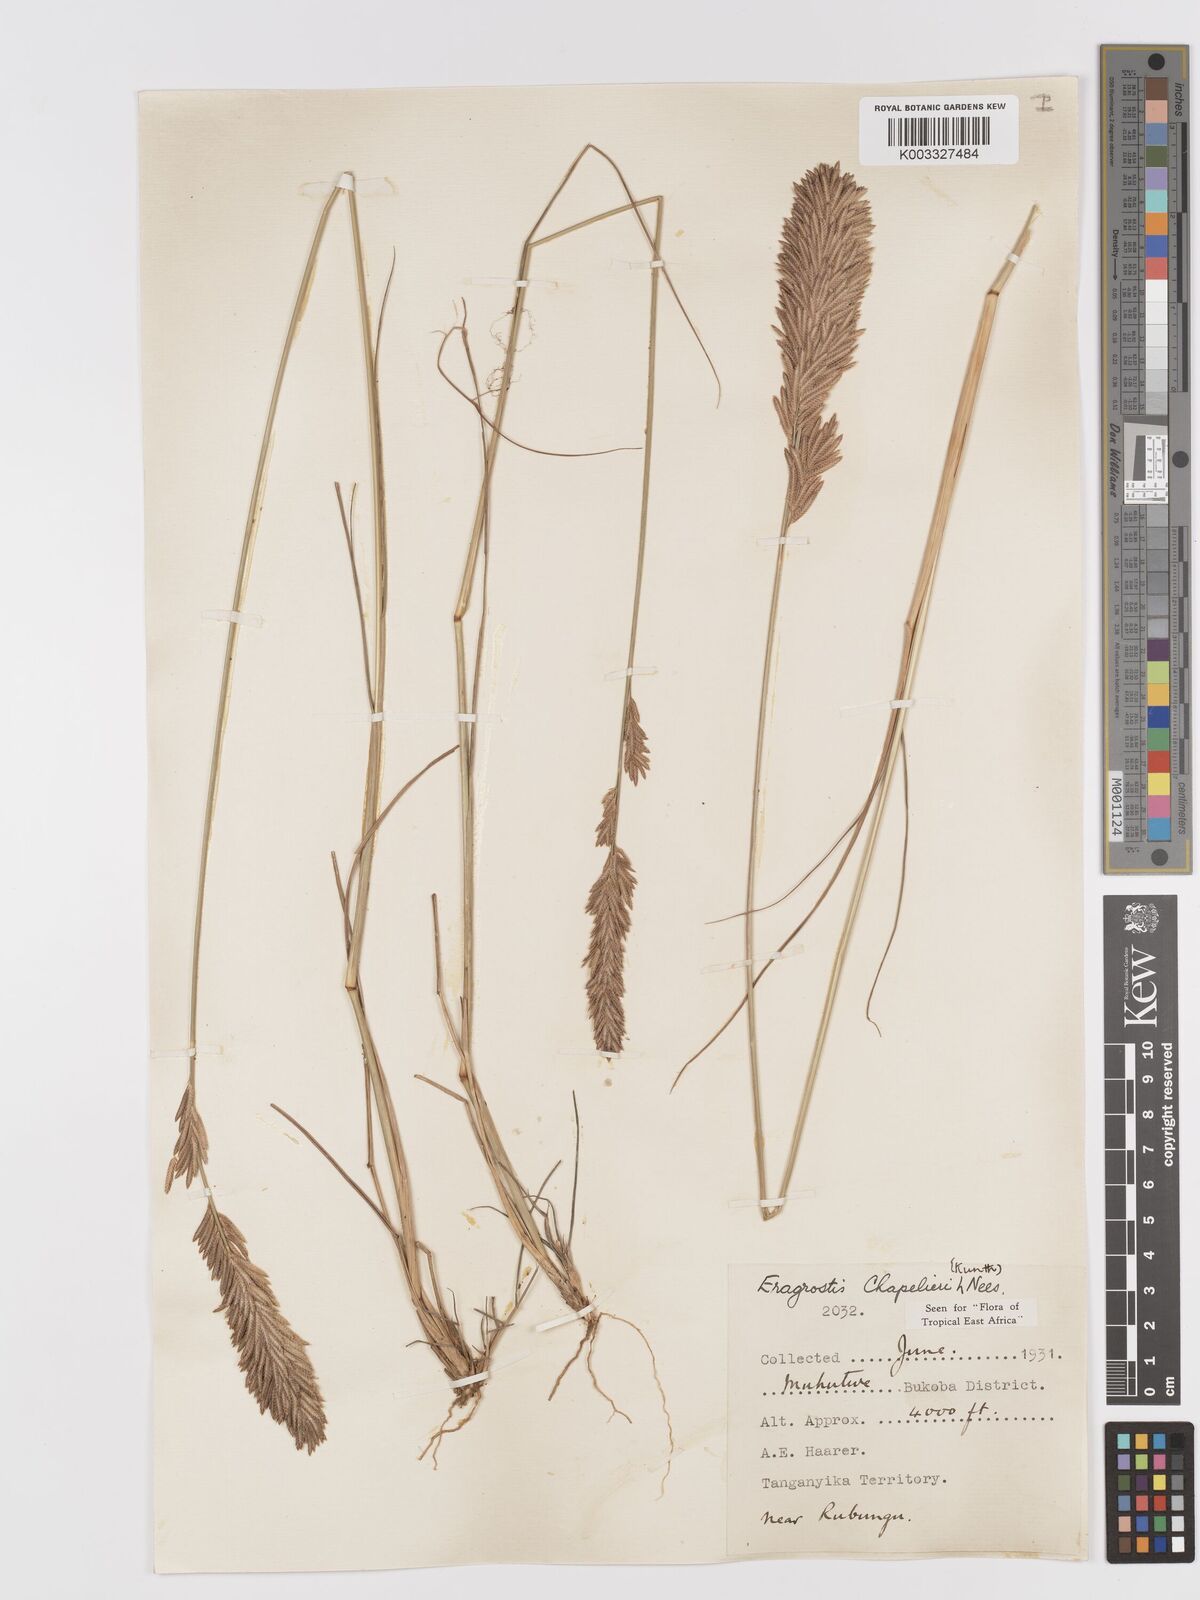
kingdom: Plantae
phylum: Tracheophyta
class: Liliopsida
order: Poales
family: Poaceae
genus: Eragrostis
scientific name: Eragrostis chapelieri
